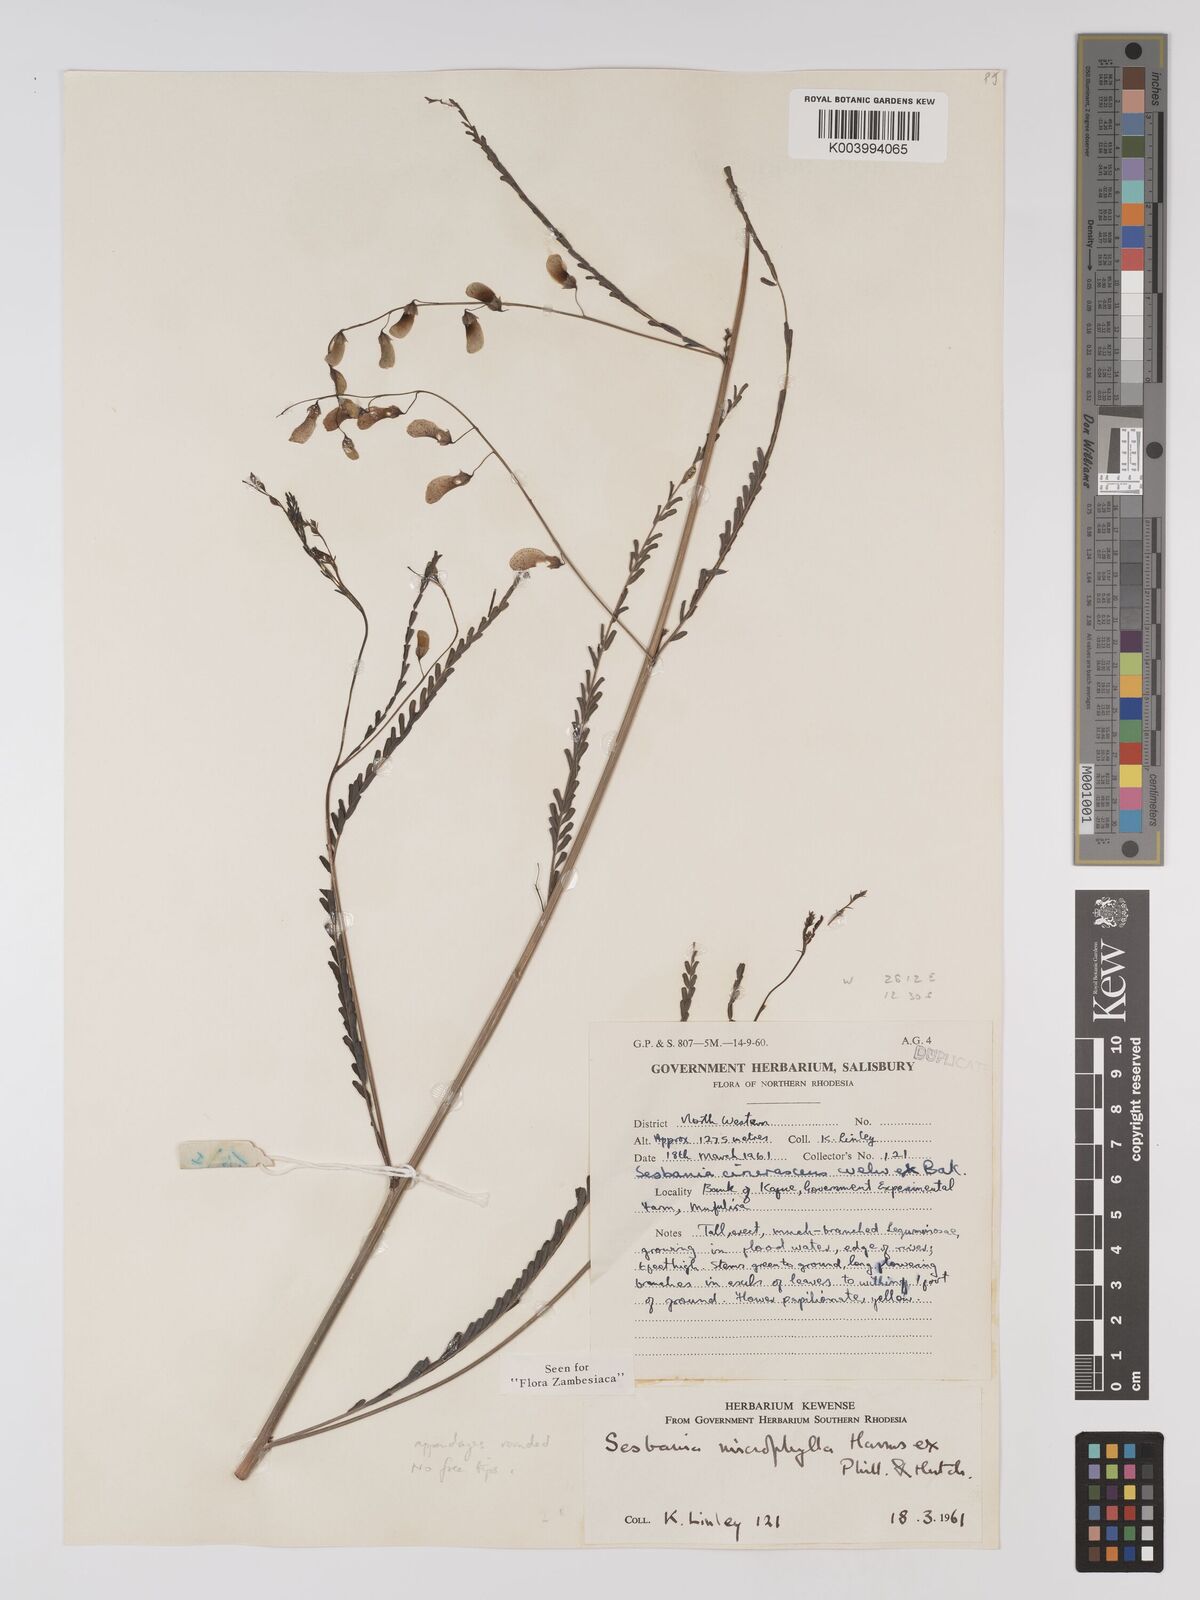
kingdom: Plantae
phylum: Tracheophyta
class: Magnoliopsida
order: Fabales
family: Fabaceae
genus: Sesbania
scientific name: Sesbania microphylla
